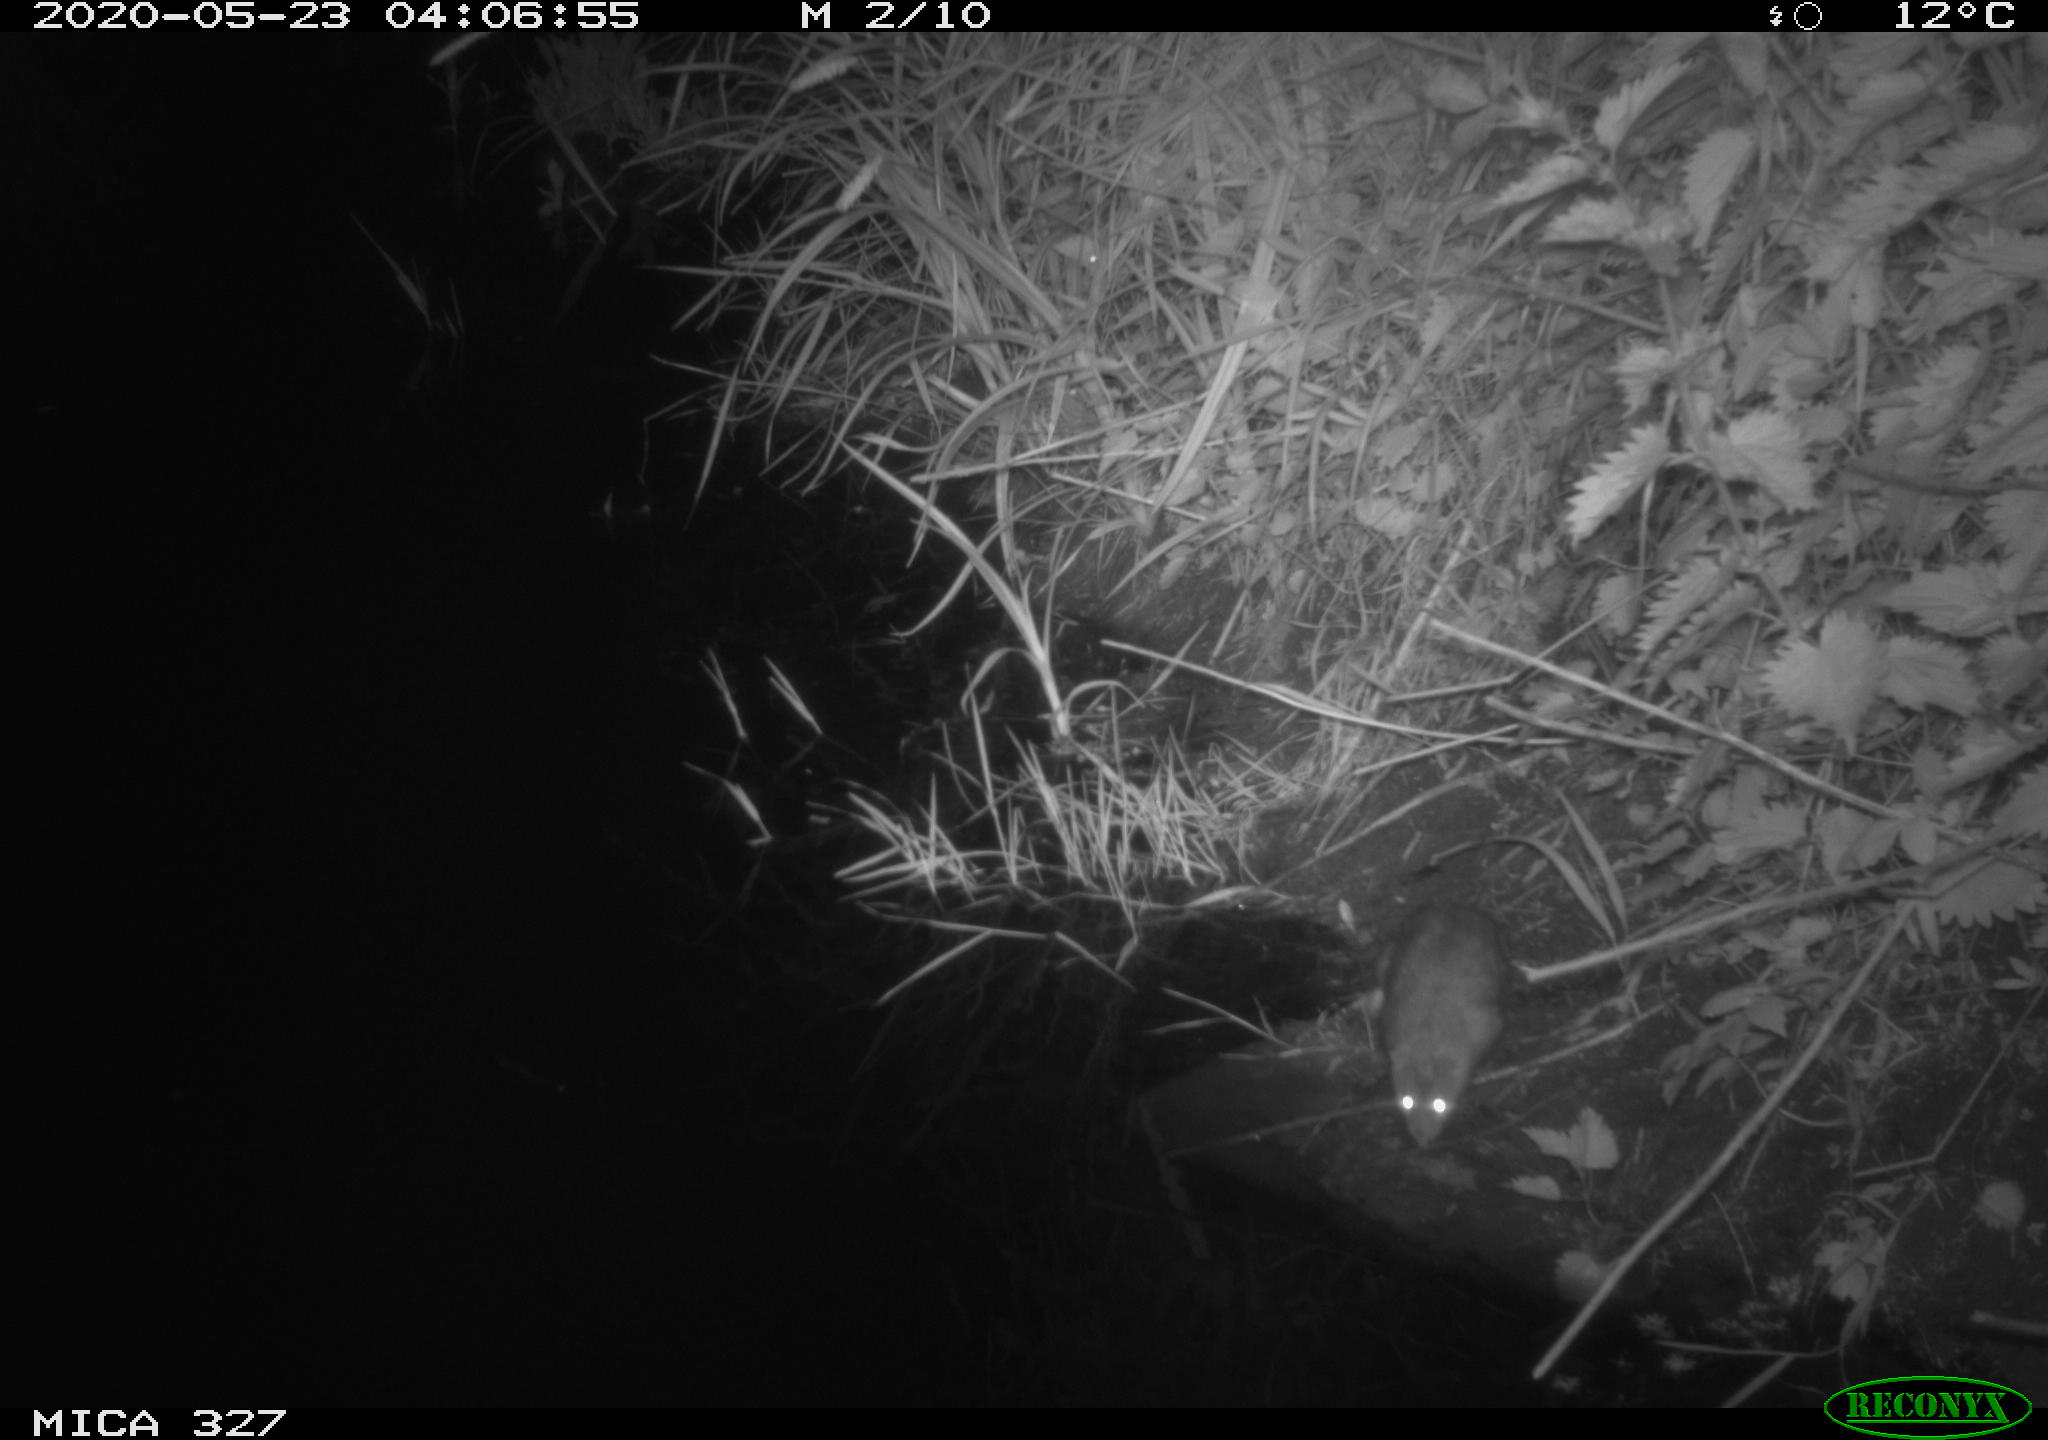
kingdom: Animalia
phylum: Chordata
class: Mammalia
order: Rodentia
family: Muridae
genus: Rattus
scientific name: Rattus norvegicus
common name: Brown rat
